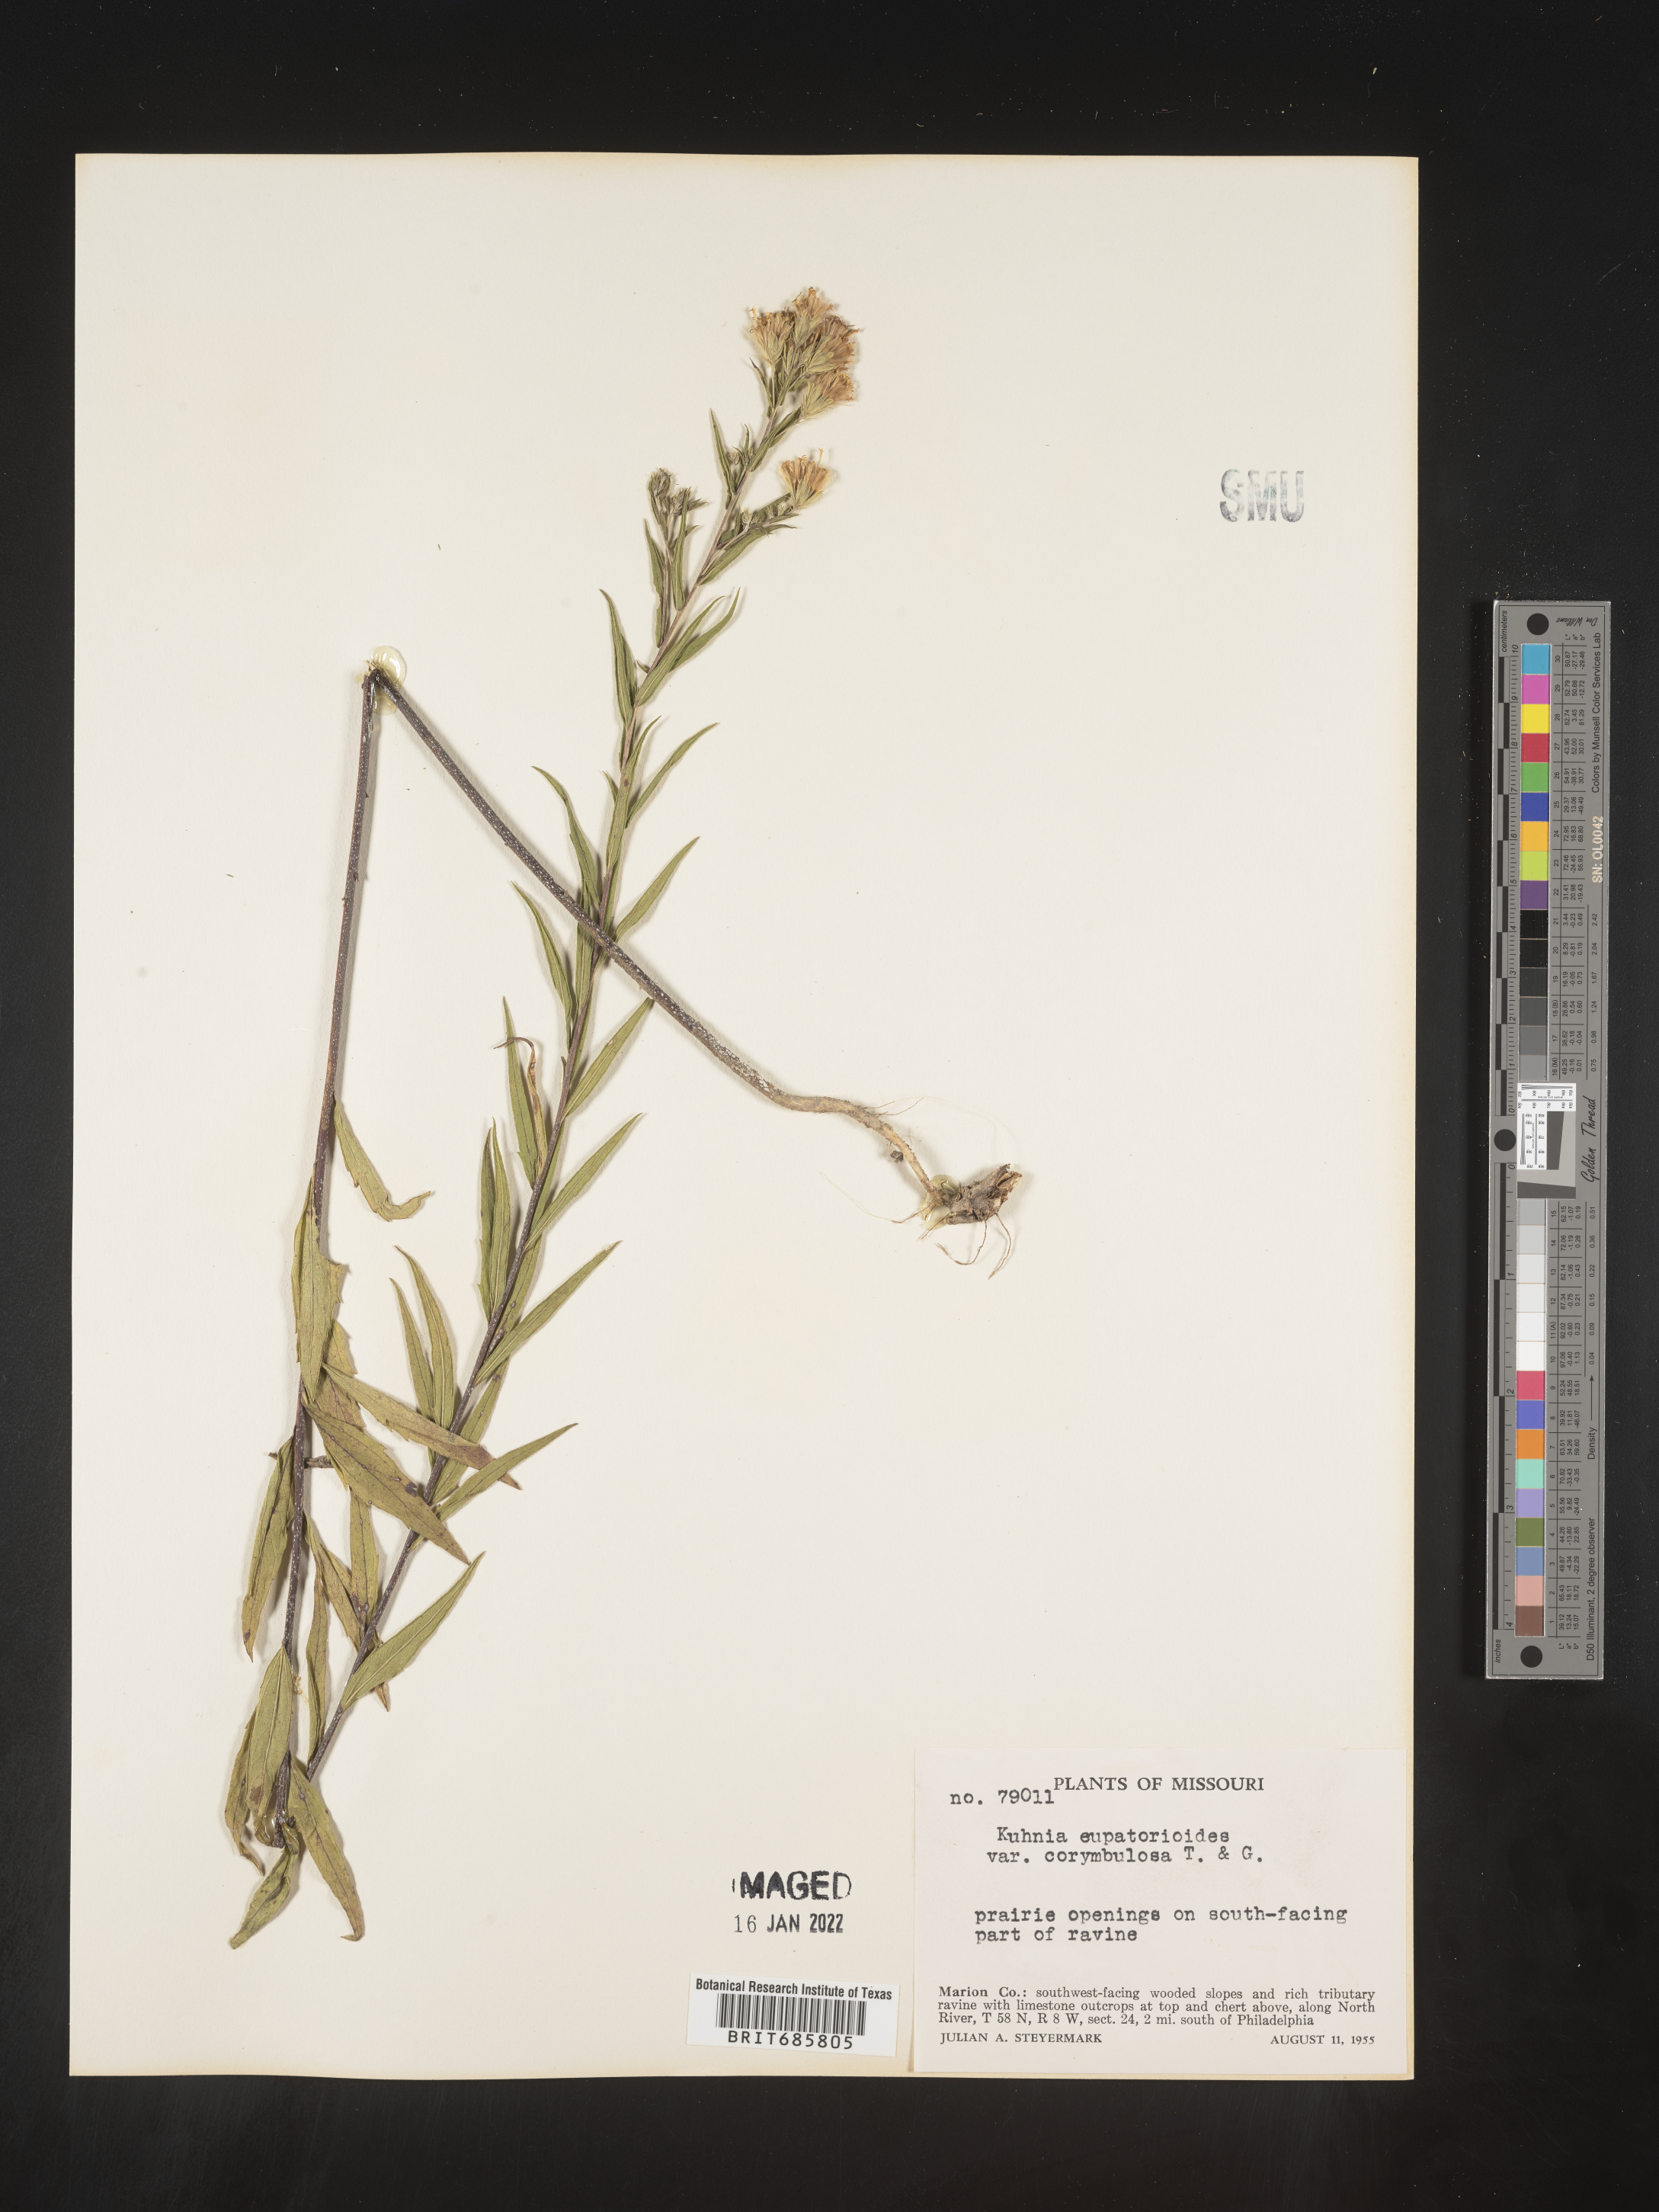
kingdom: Plantae
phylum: Tracheophyta
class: Magnoliopsida
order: Asterales
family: Asteraceae
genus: Brickellia
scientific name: Brickellia eupatorioides
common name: False boneset
